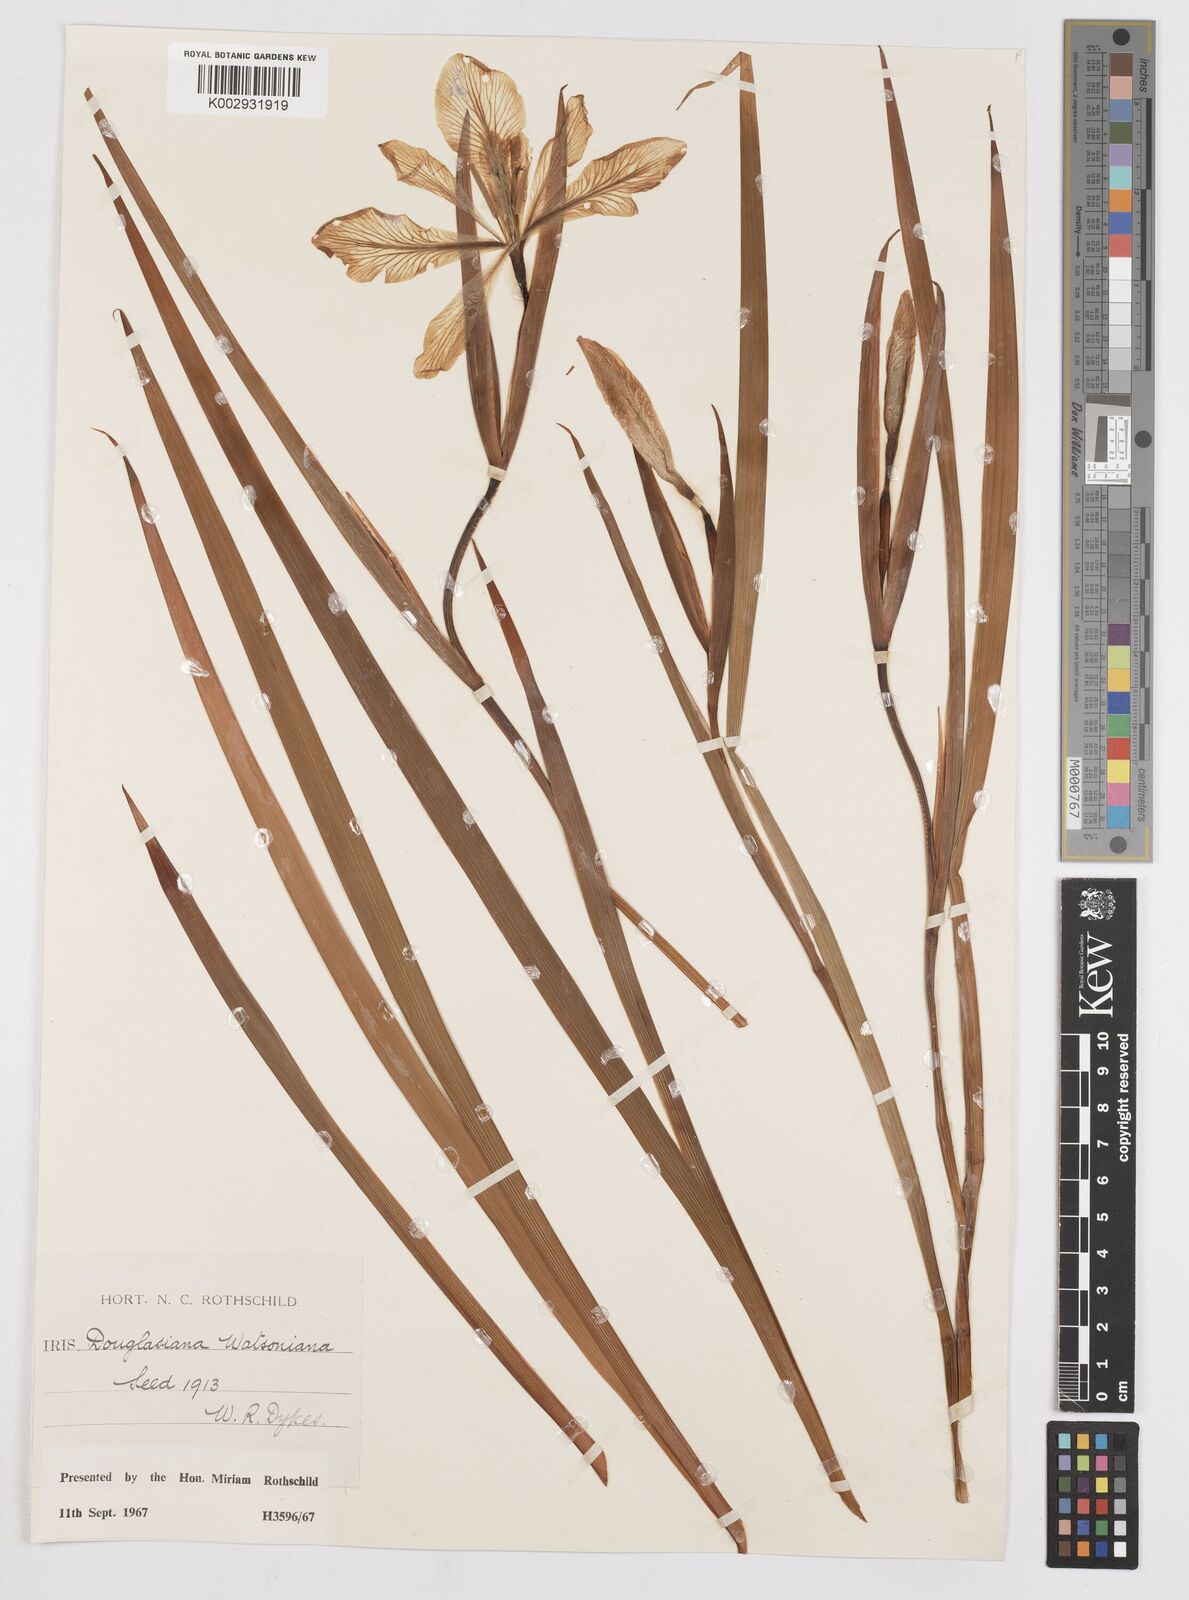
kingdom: Plantae
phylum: Tracheophyta
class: Liliopsida
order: Asparagales
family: Iridaceae
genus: Iris
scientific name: Iris douglasiana
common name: Marin iris
